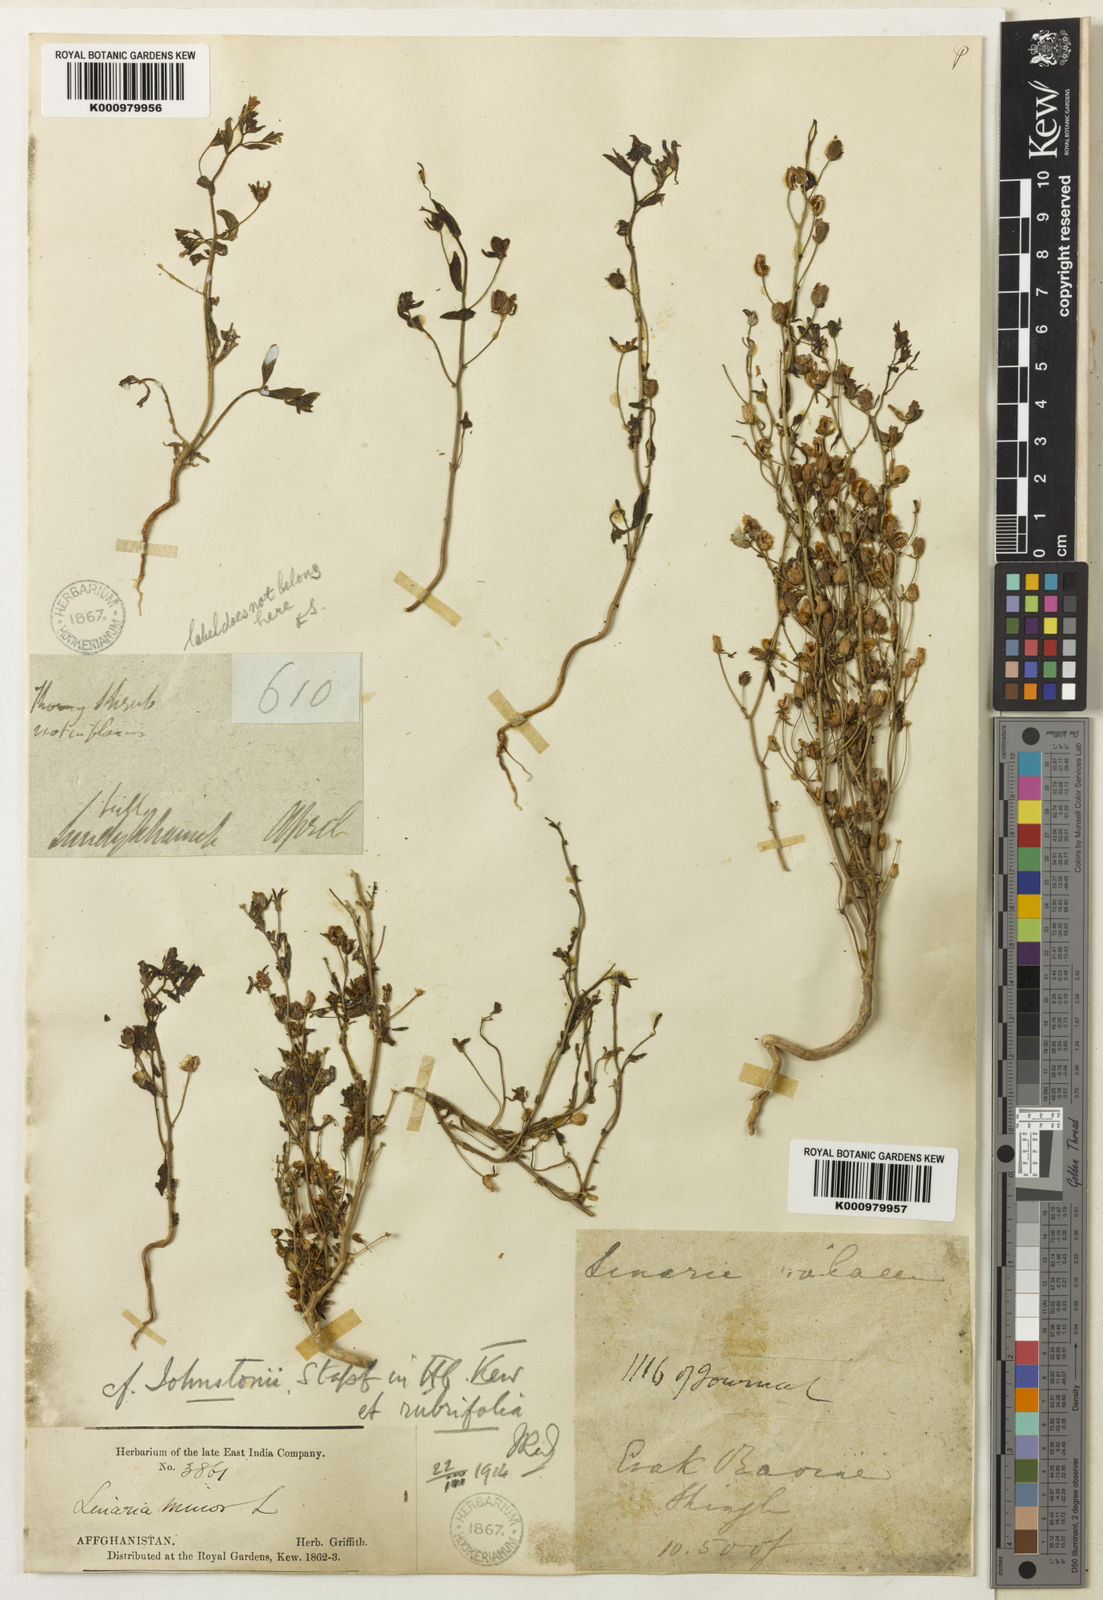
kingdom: Plantae
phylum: Tracheophyta
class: Magnoliopsida
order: Lamiales
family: Plantaginaceae
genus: Chaenorhinum
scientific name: Chaenorhinum rubrifolium
